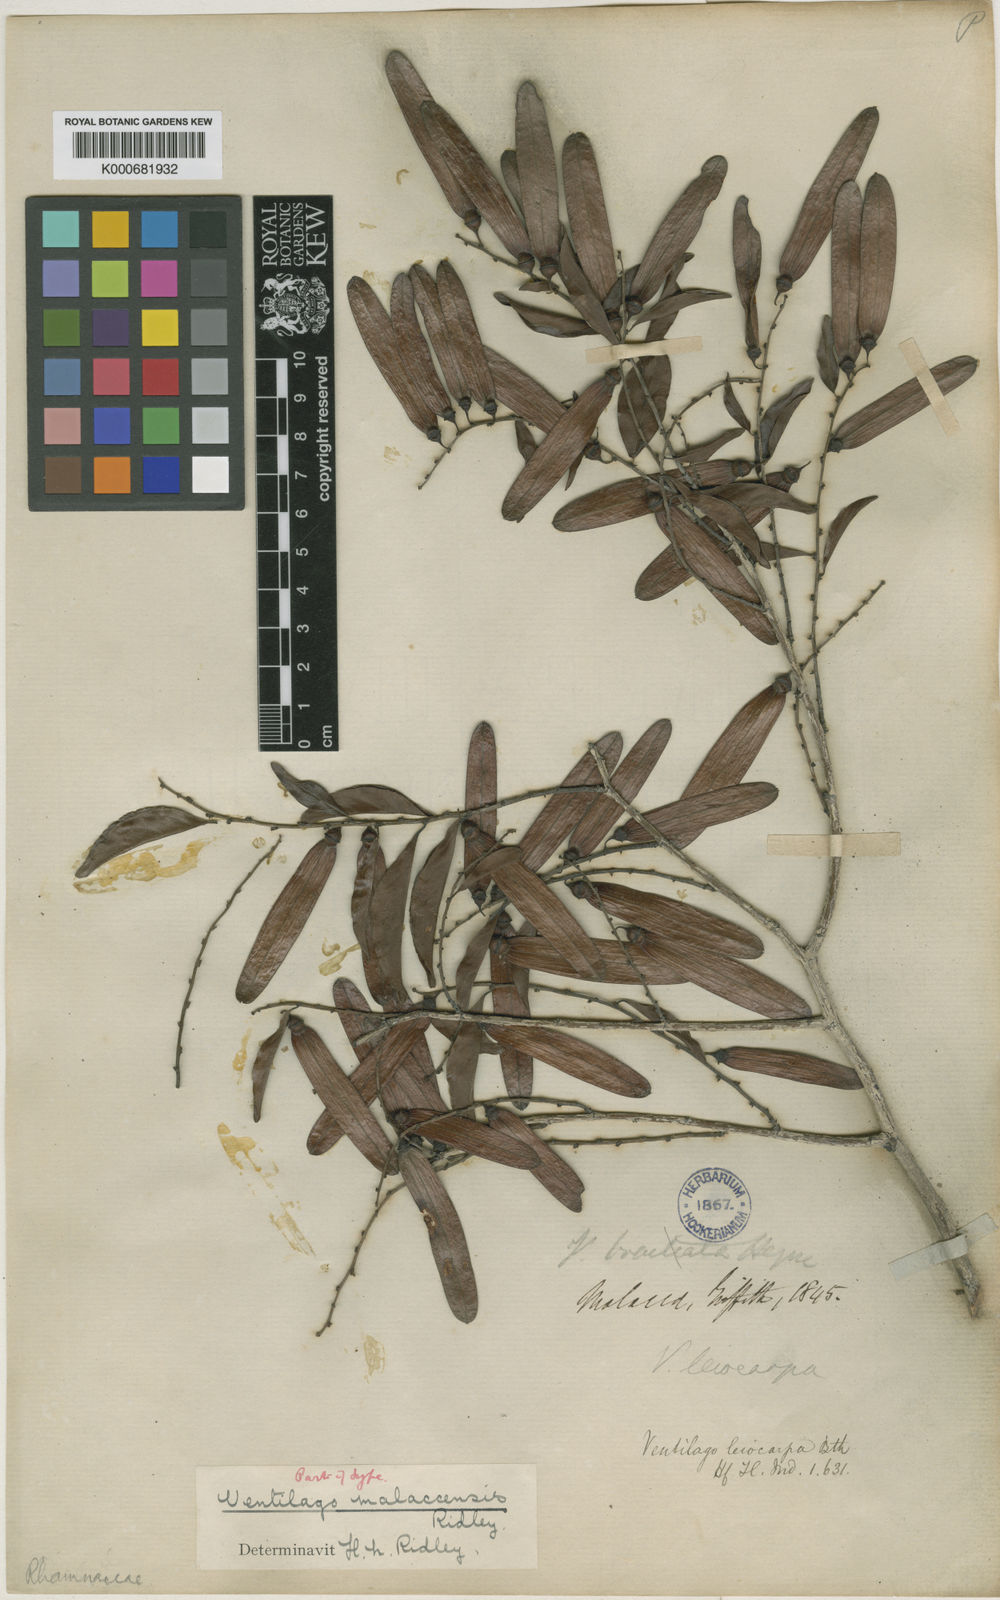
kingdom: Plantae
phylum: Tracheophyta
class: Magnoliopsida
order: Rosales
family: Rhamnaceae
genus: Ventilago
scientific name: Ventilago malaccensis
